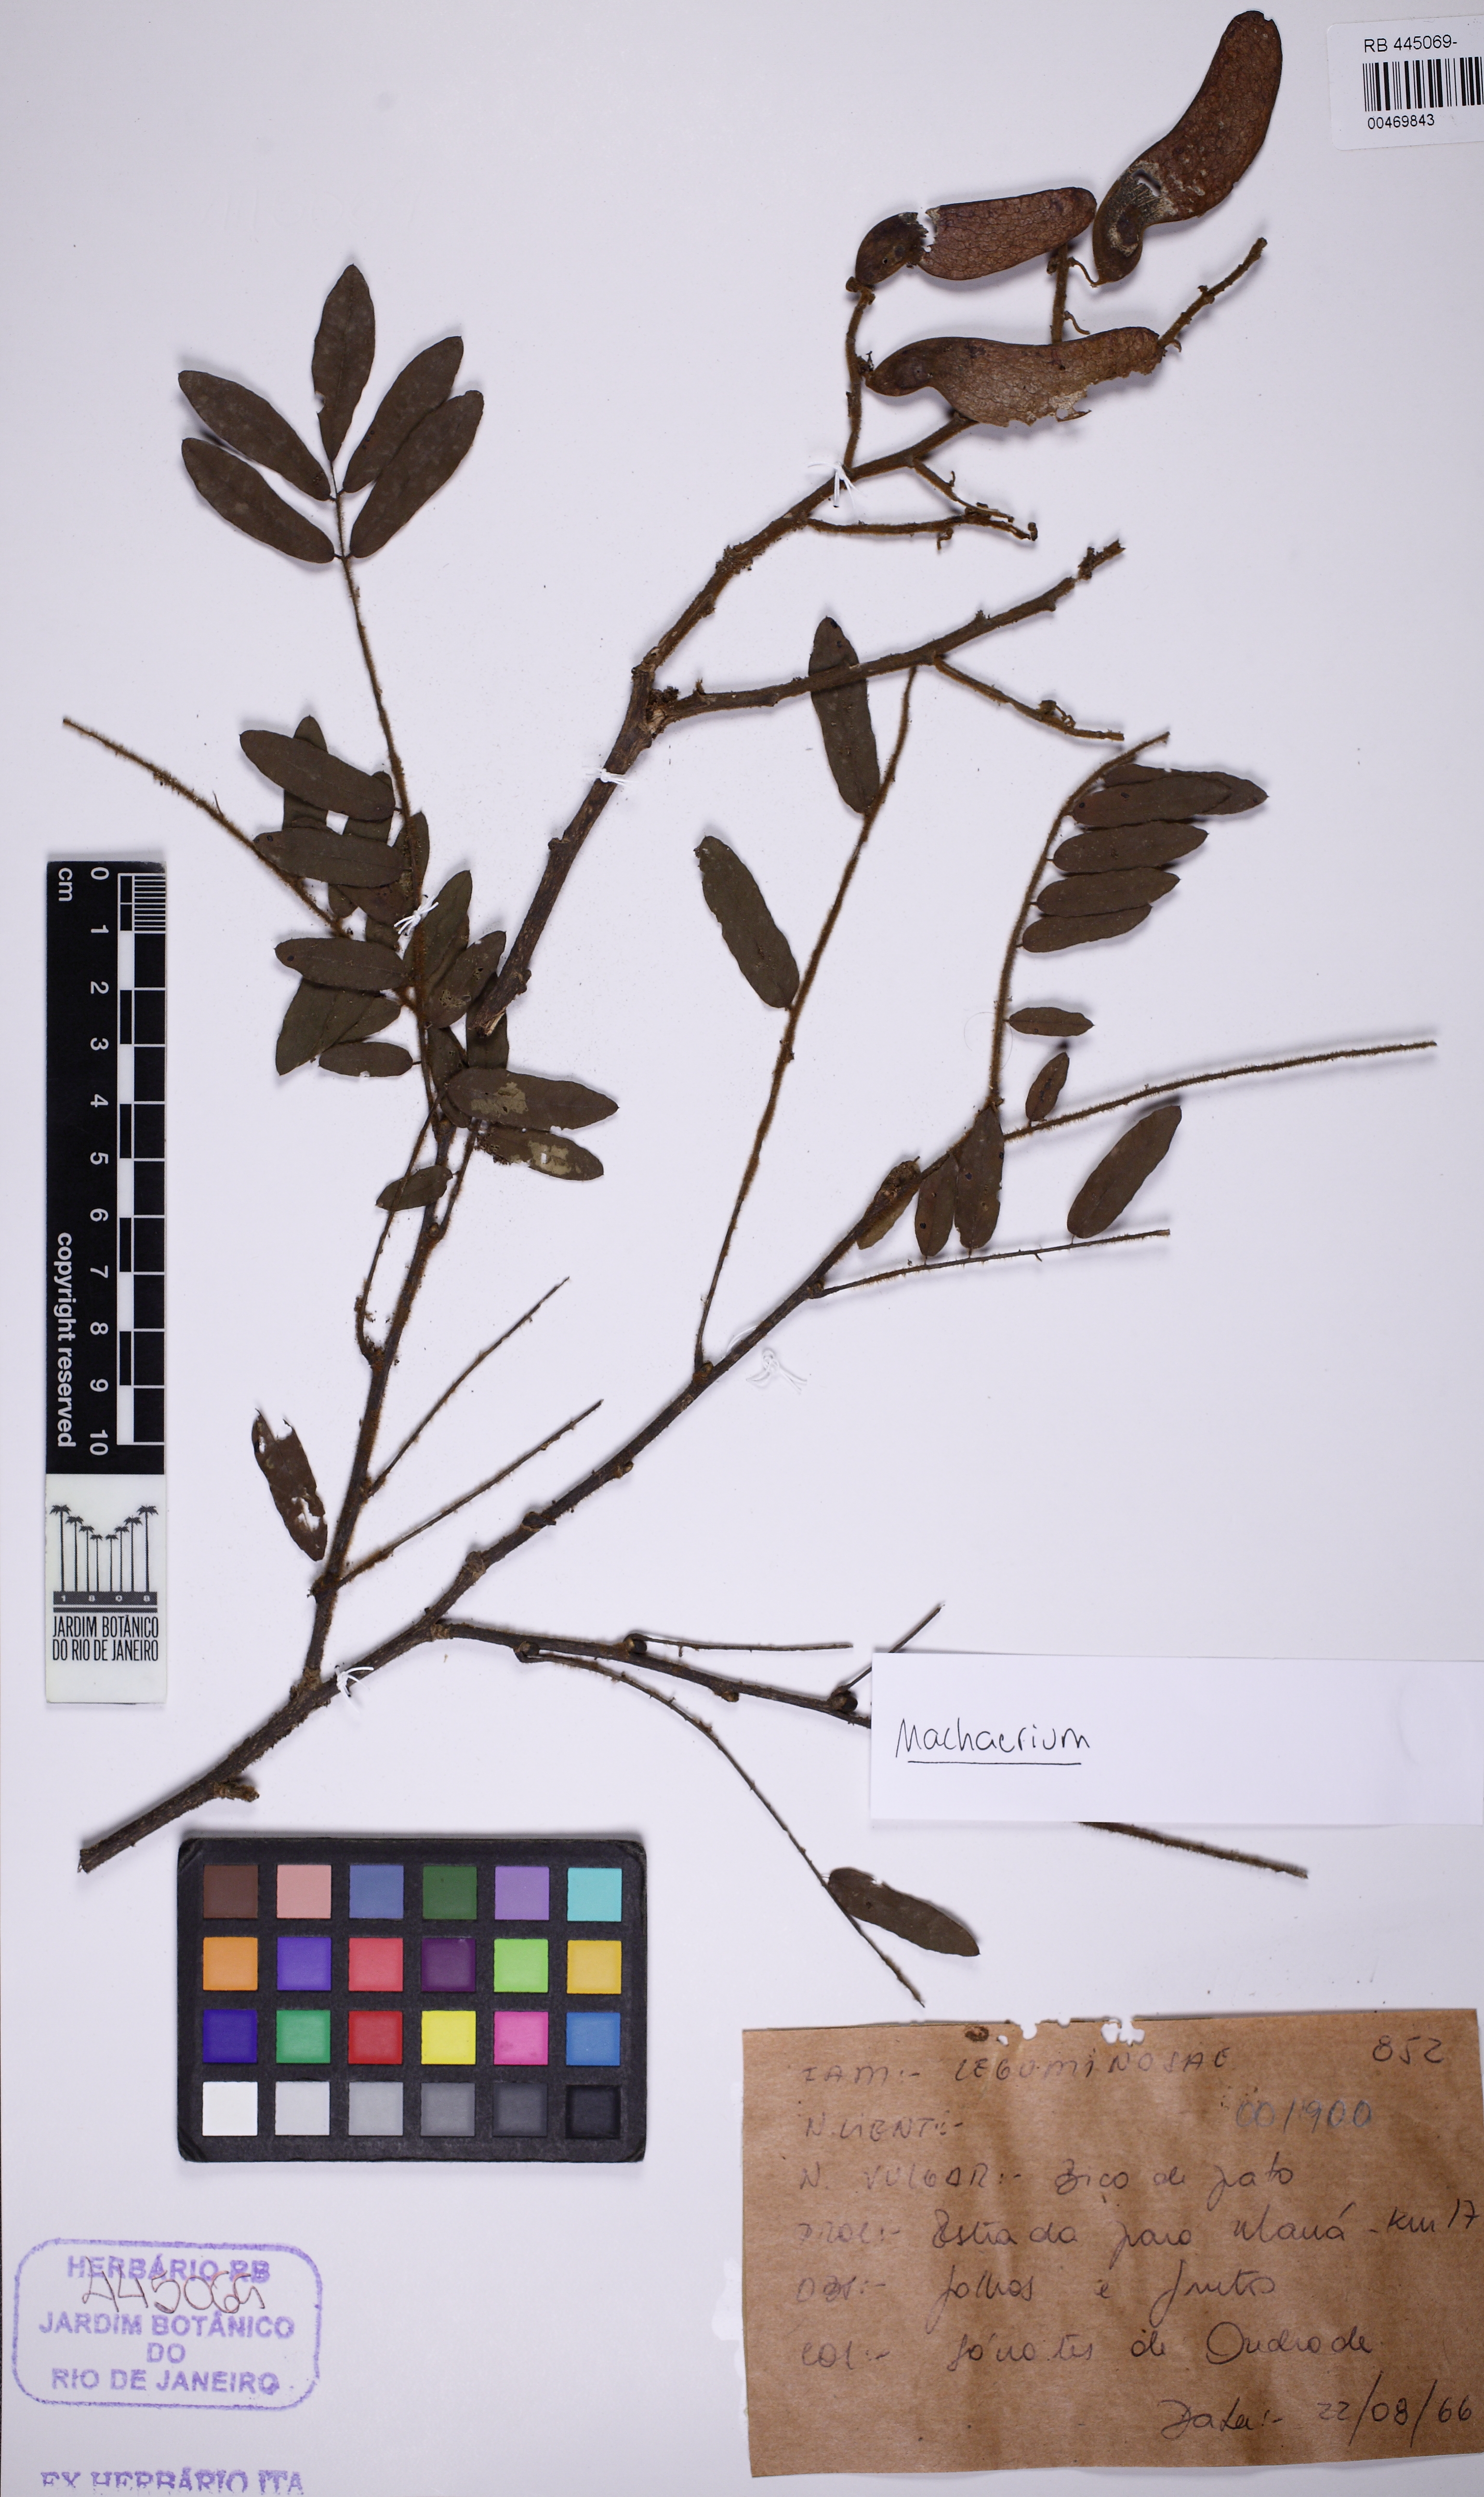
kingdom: Plantae
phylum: Tracheophyta
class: Magnoliopsida
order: Fabales
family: Fabaceae
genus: Machaerium
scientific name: Machaerium nyctitans
